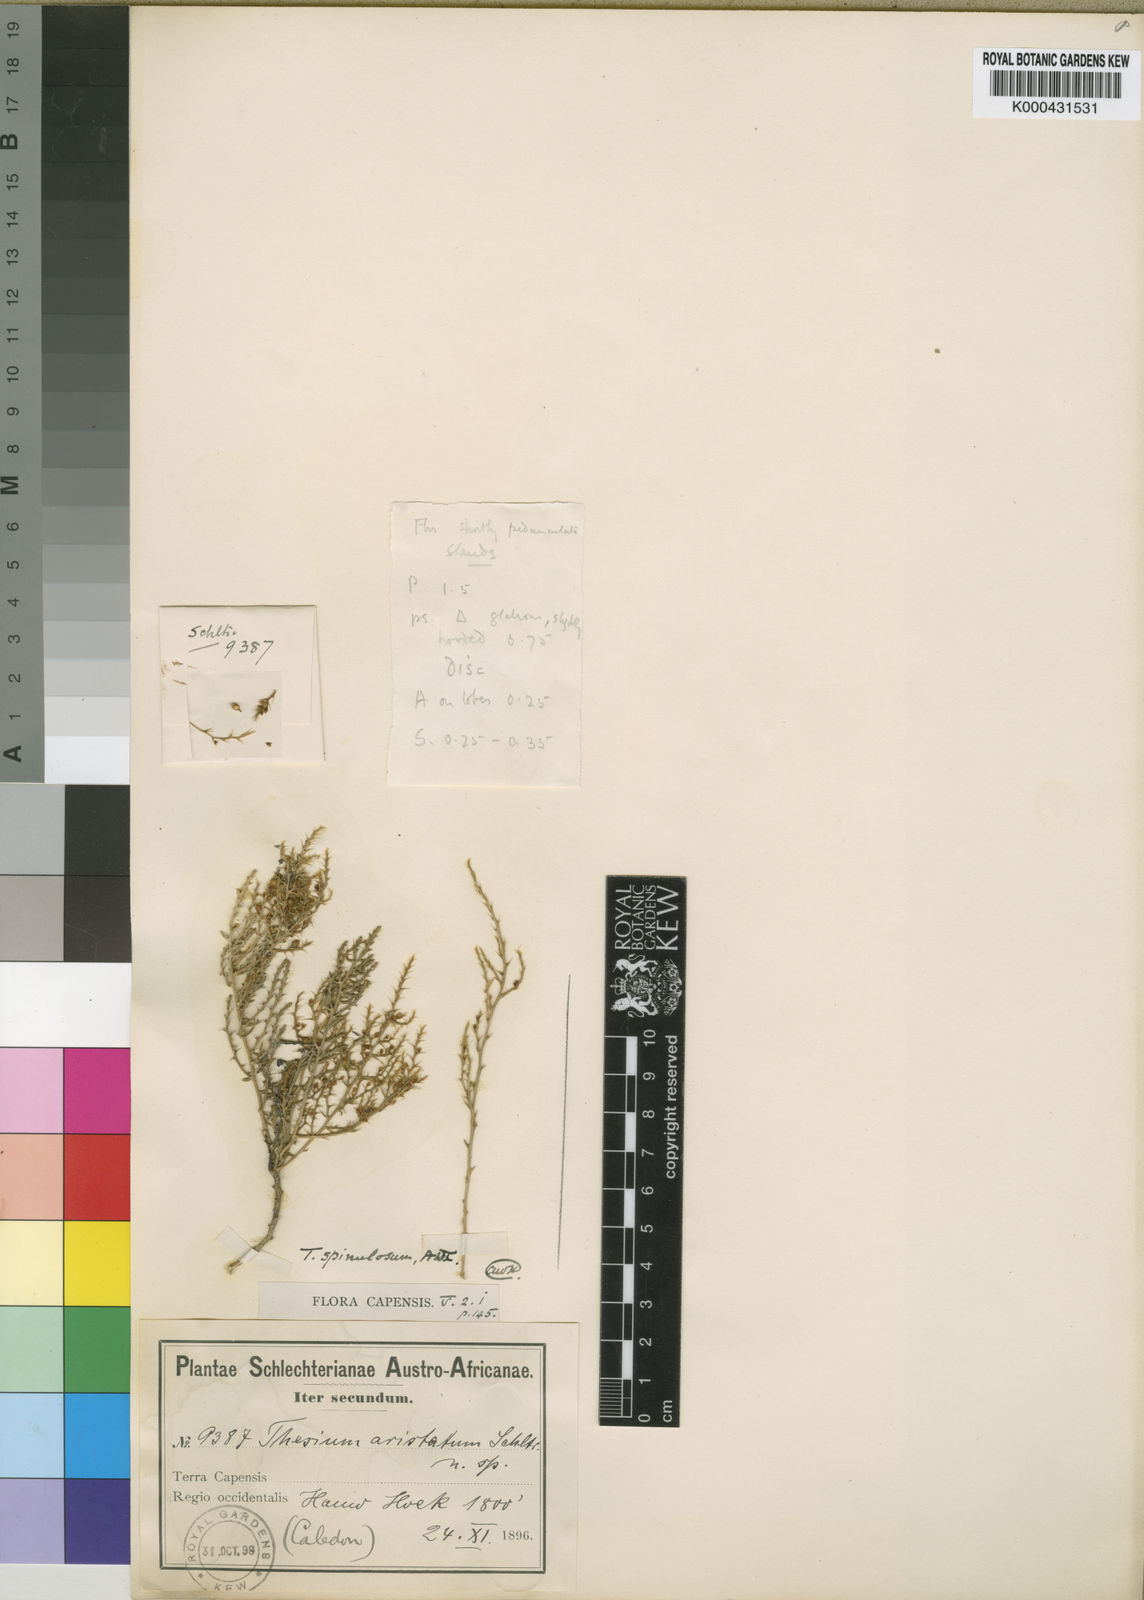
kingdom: Plantae
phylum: Tracheophyta
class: Magnoliopsida
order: Santalales
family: Thesiaceae
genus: Thesium
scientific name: Thesium spinulosum
